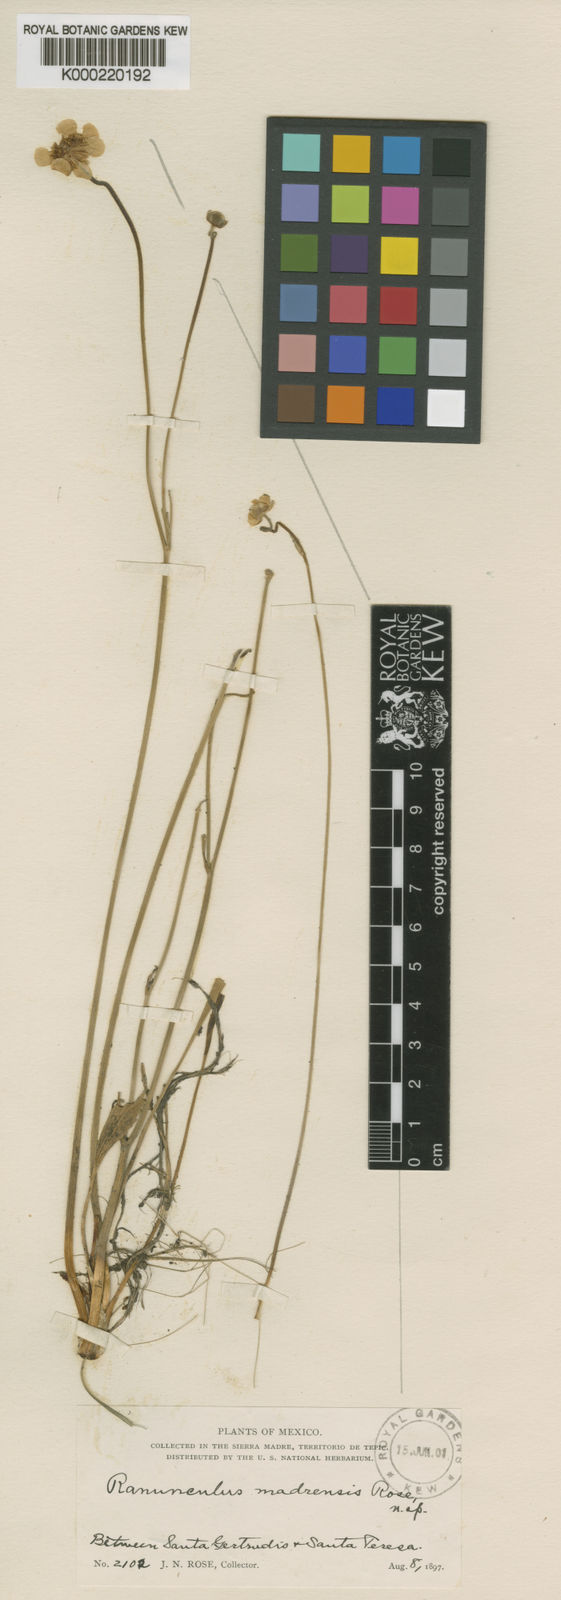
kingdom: Plantae
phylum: Tracheophyta
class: Magnoliopsida
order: Ranunculales
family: Ranunculaceae
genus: Ranunculus
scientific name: Ranunculus forreri
